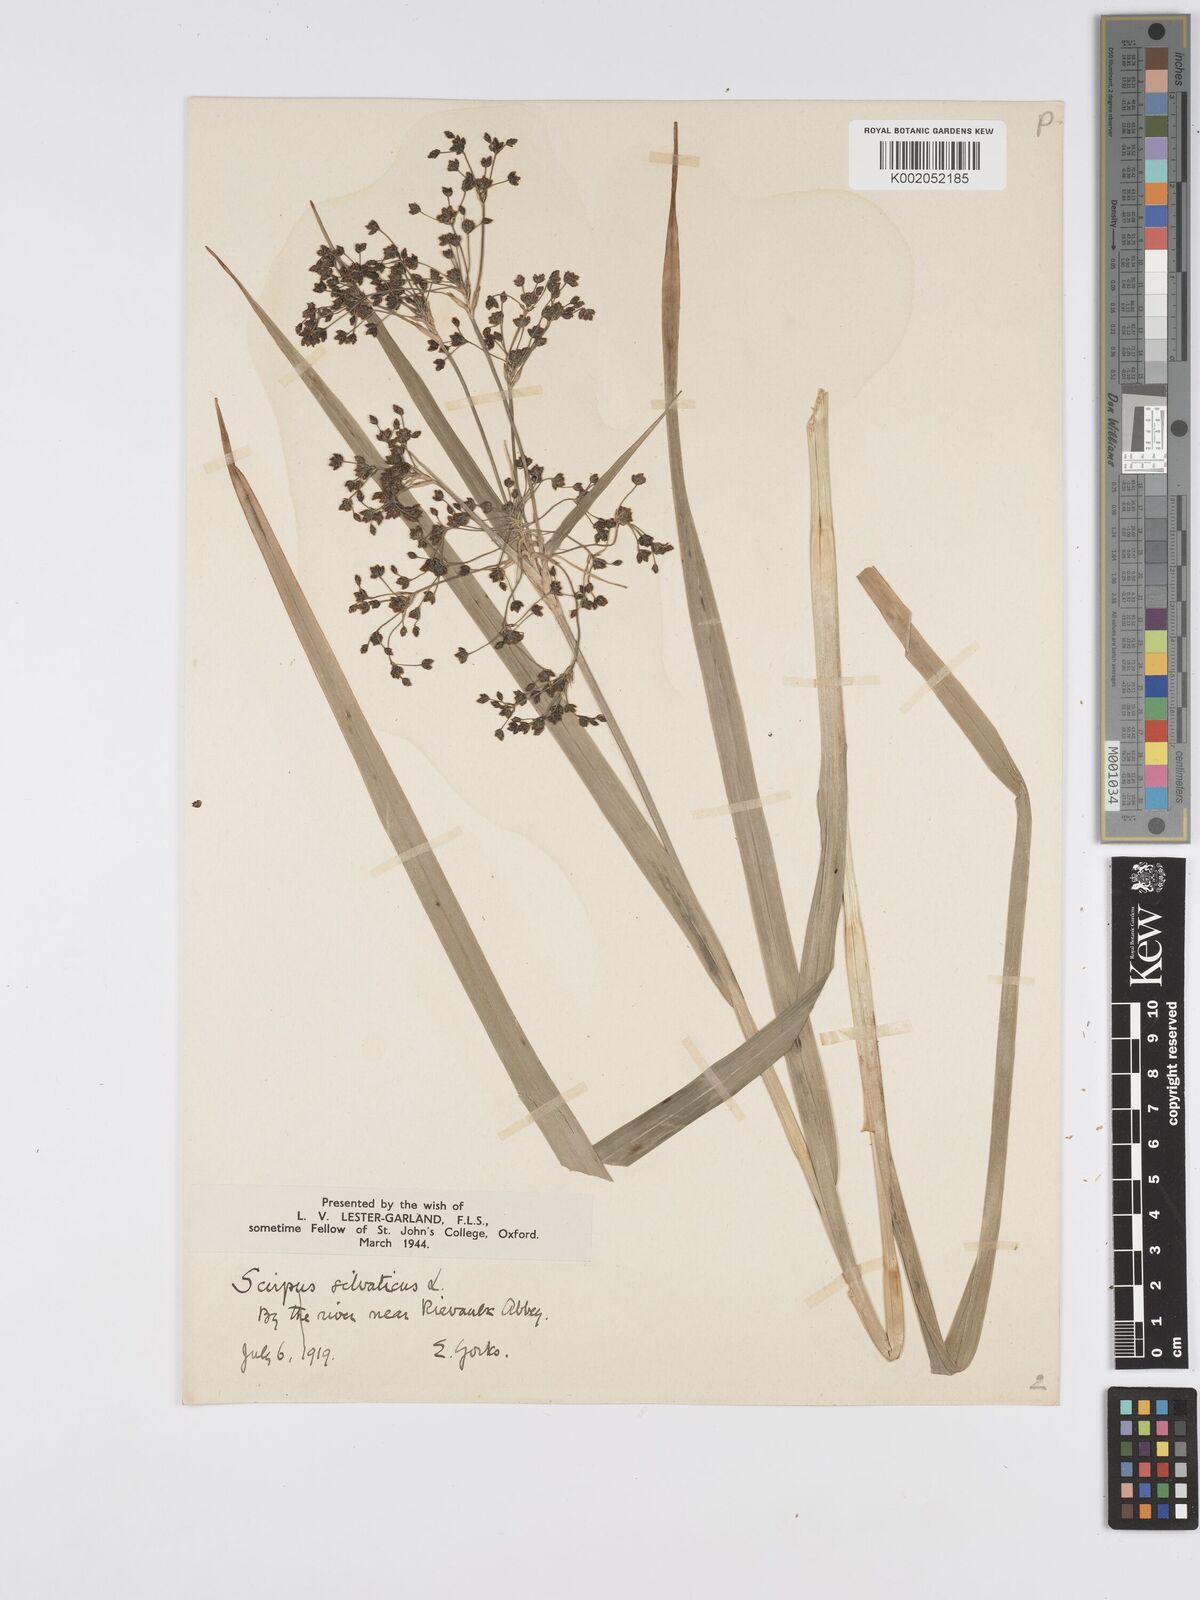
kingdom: Plantae
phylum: Tracheophyta
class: Liliopsida
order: Poales
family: Cyperaceae
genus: Scirpus
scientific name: Scirpus sylvaticus
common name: Wood club-rush
